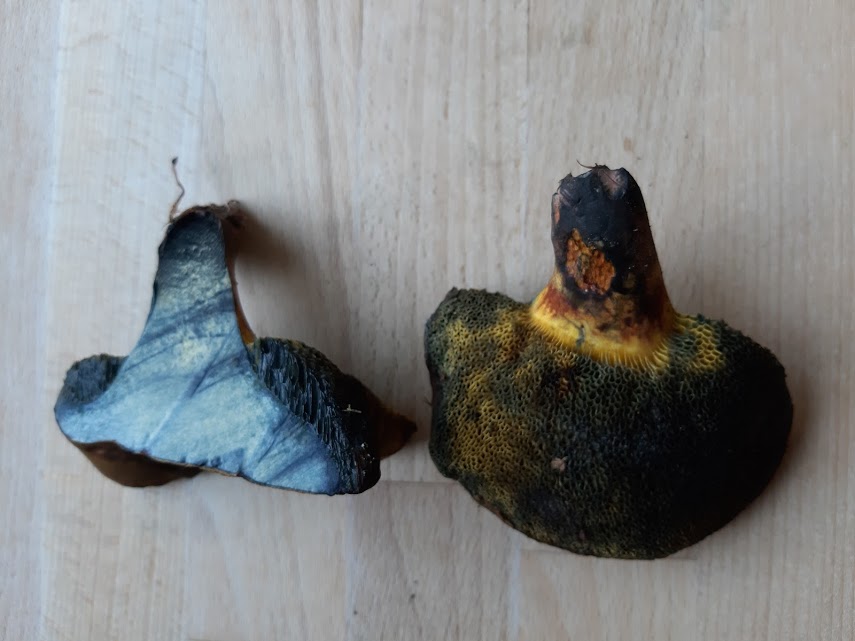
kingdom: Fungi
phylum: Basidiomycota
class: Agaricomycetes
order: Boletales
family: Boletaceae
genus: Cyanoboletus
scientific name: Cyanoboletus pulverulentus
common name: sortblånende rørhat
